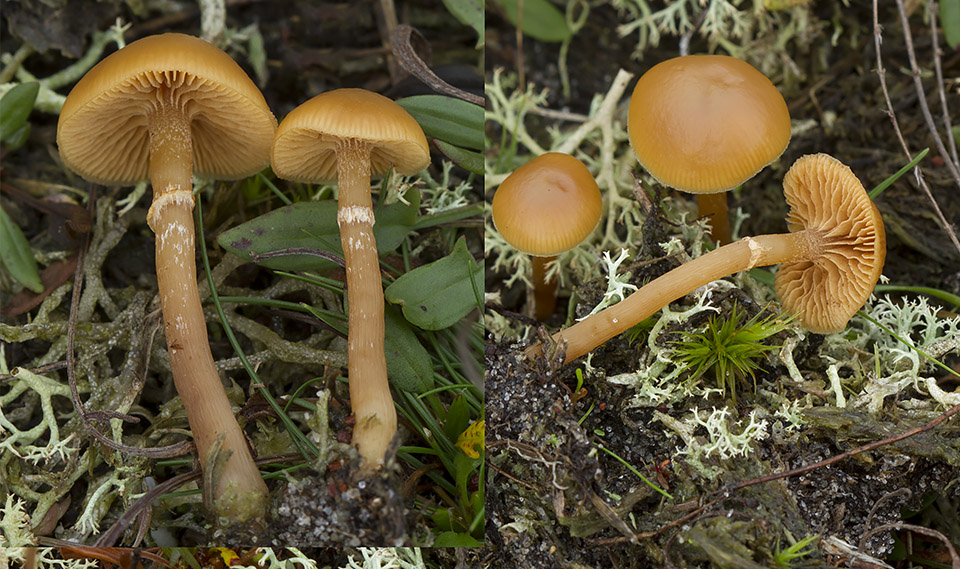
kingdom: Fungi
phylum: Basidiomycota
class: Agaricomycetes
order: Agaricales
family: Hymenogastraceae
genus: Galerina
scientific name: Galerina marginata
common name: randbæltet hjelmhat
